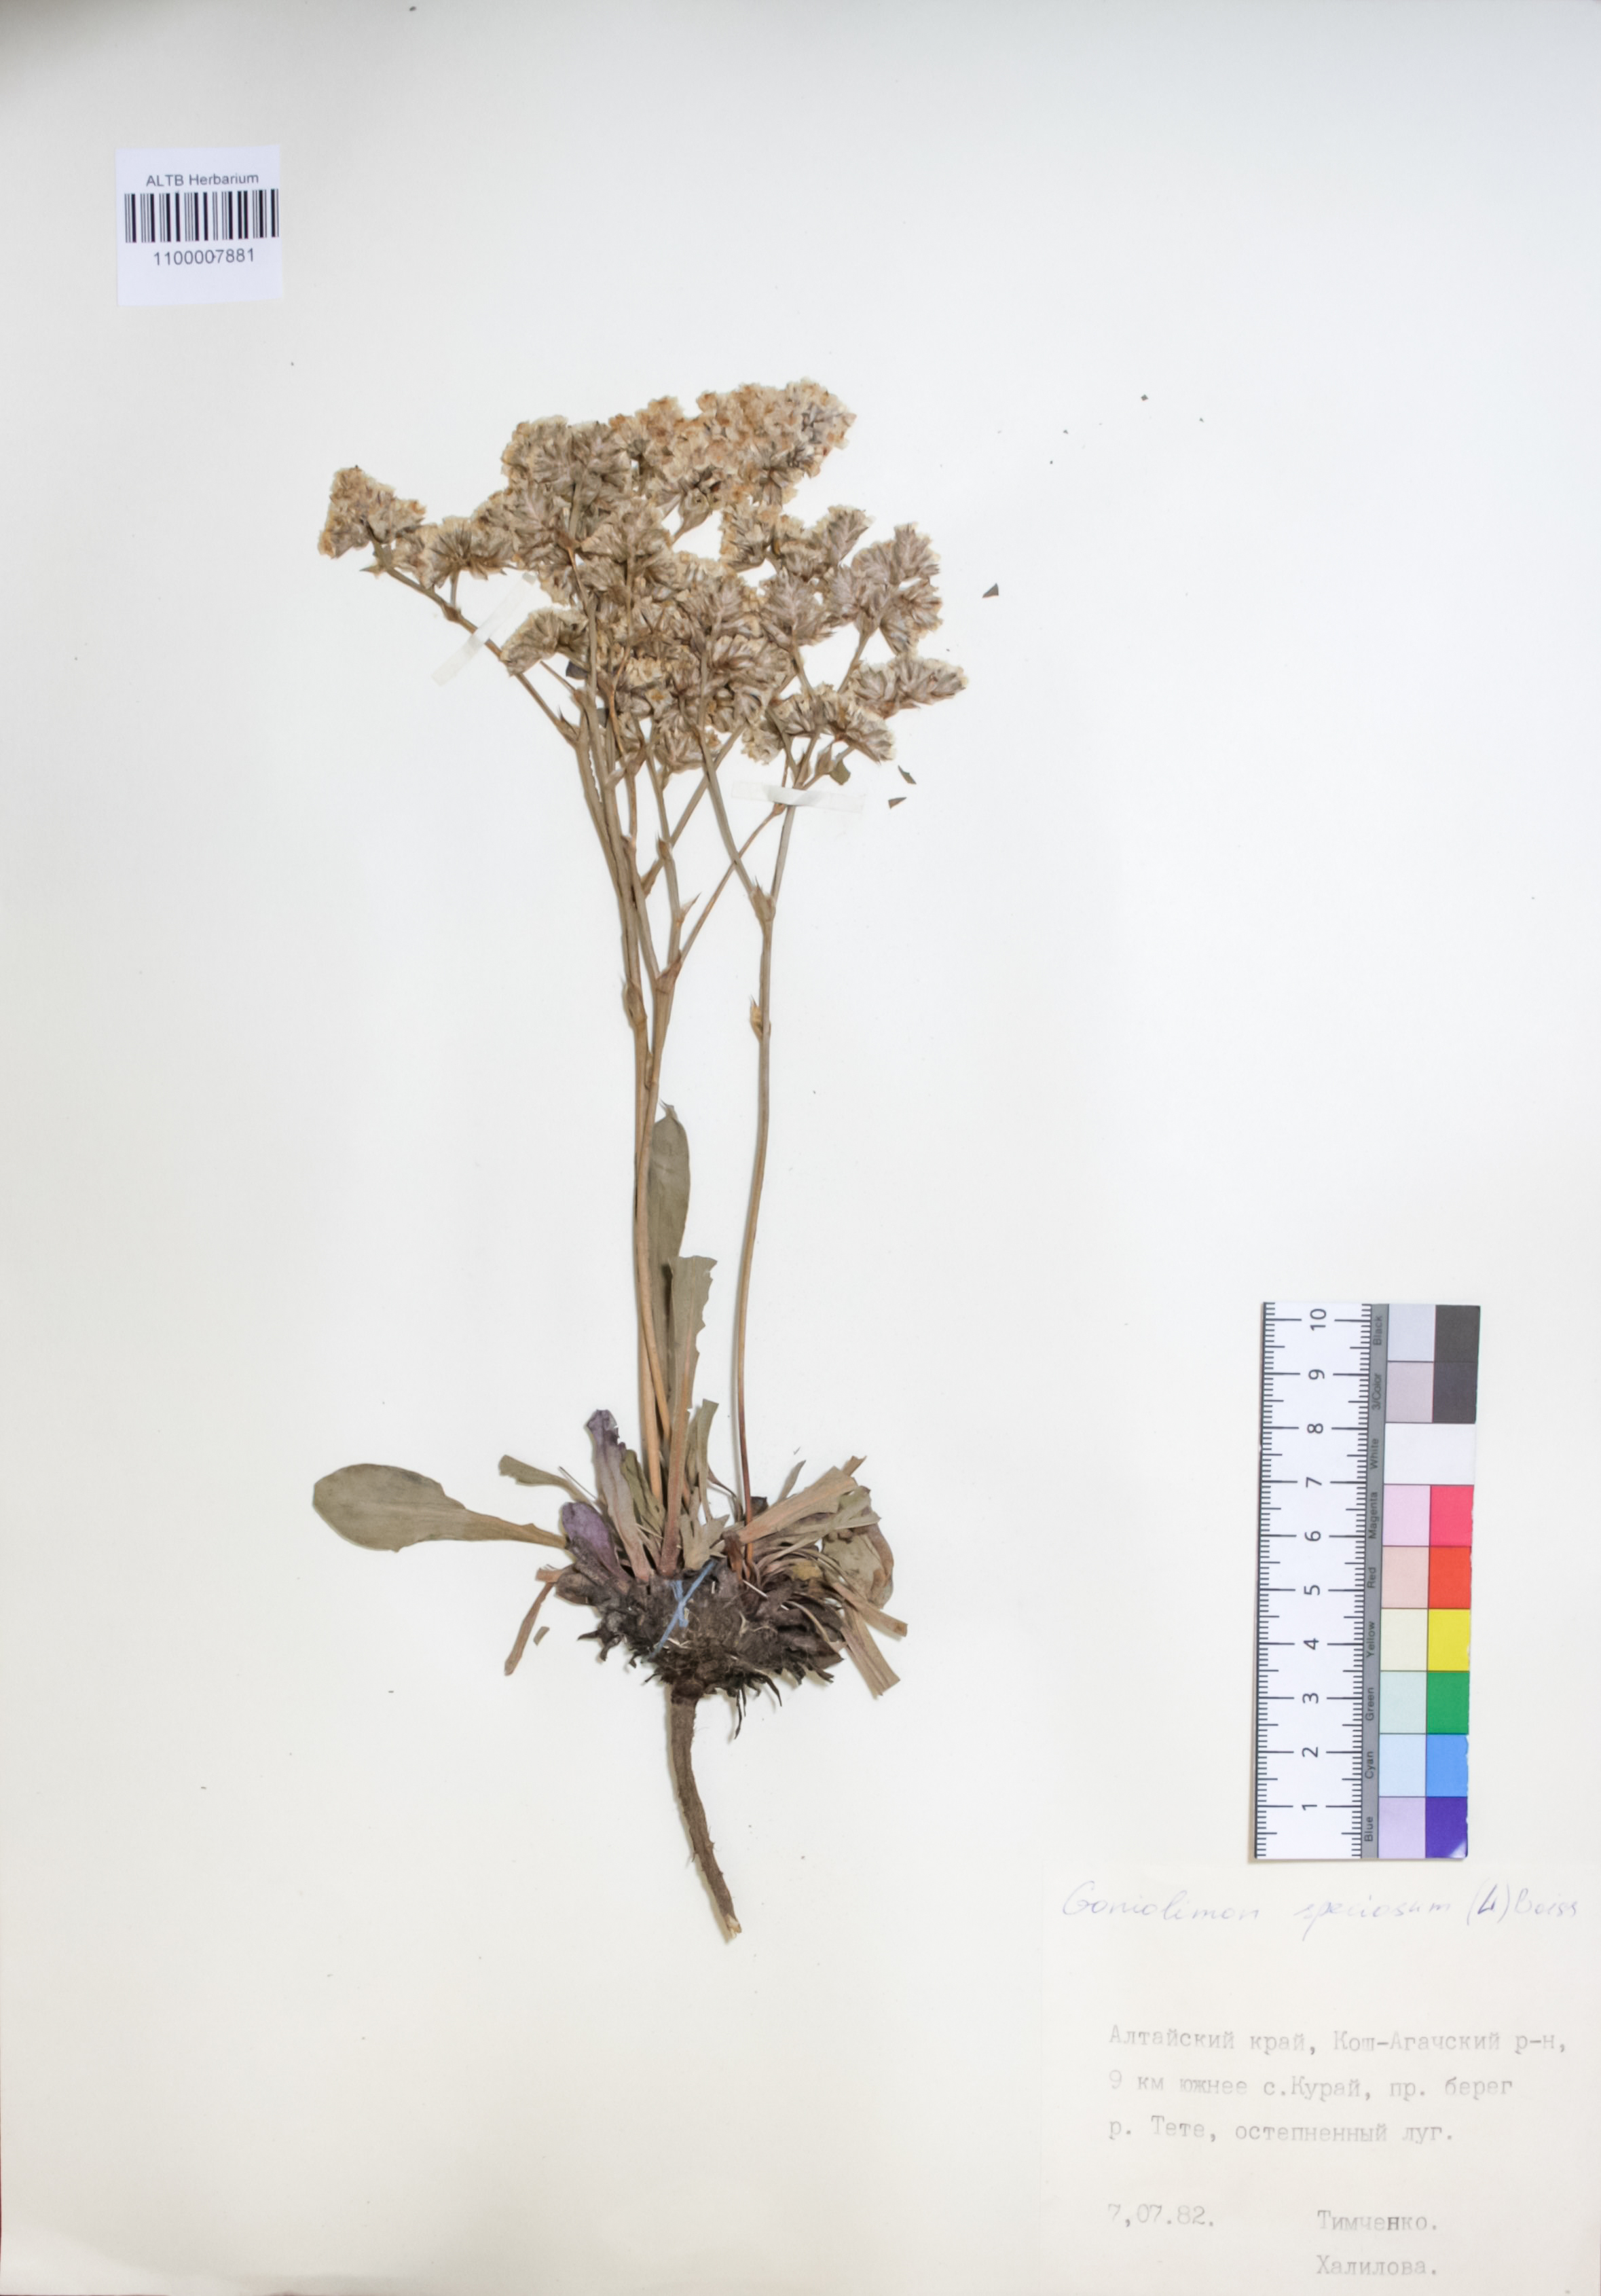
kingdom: Plantae
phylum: Tracheophyta
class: Magnoliopsida
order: Caryophyllales
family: Plumbaginaceae
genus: Goniolimon
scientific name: Goniolimon speciosum
